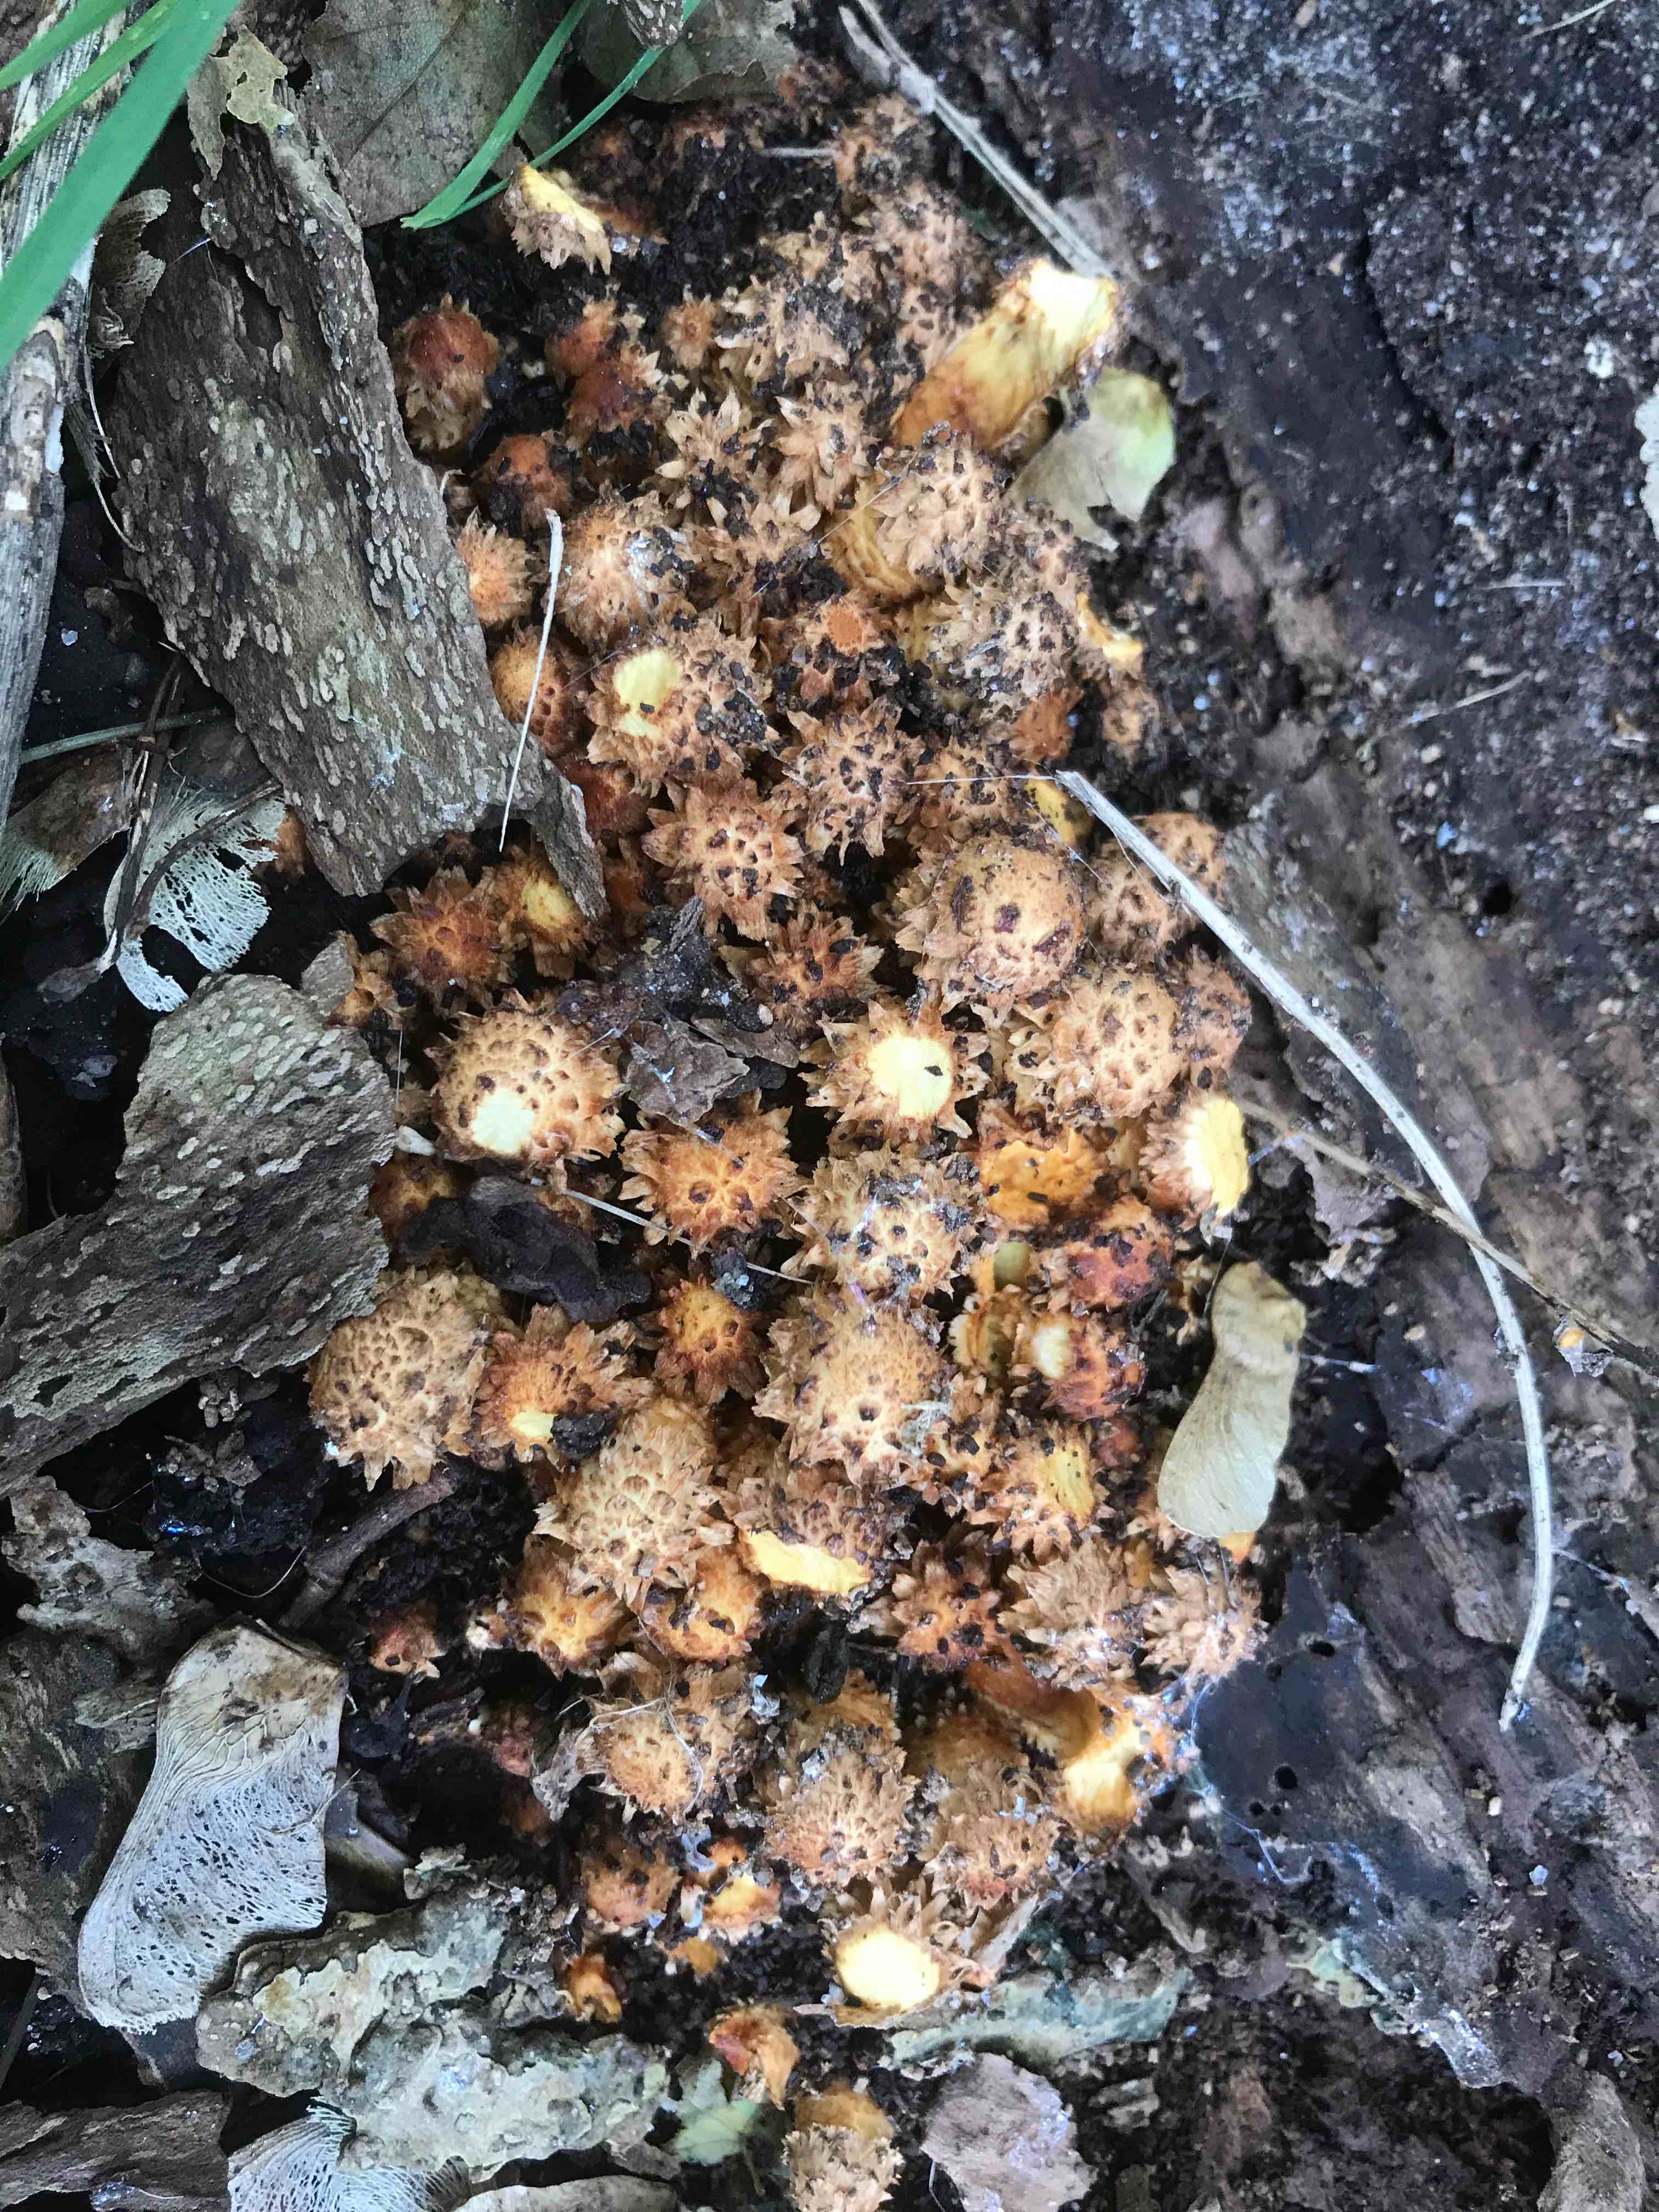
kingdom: Fungi
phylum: Basidiomycota
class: Agaricomycetes
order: Agaricales
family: Strophariaceae
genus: Pholiota
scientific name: Pholiota squarrosa
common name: krumskællet skælhat
